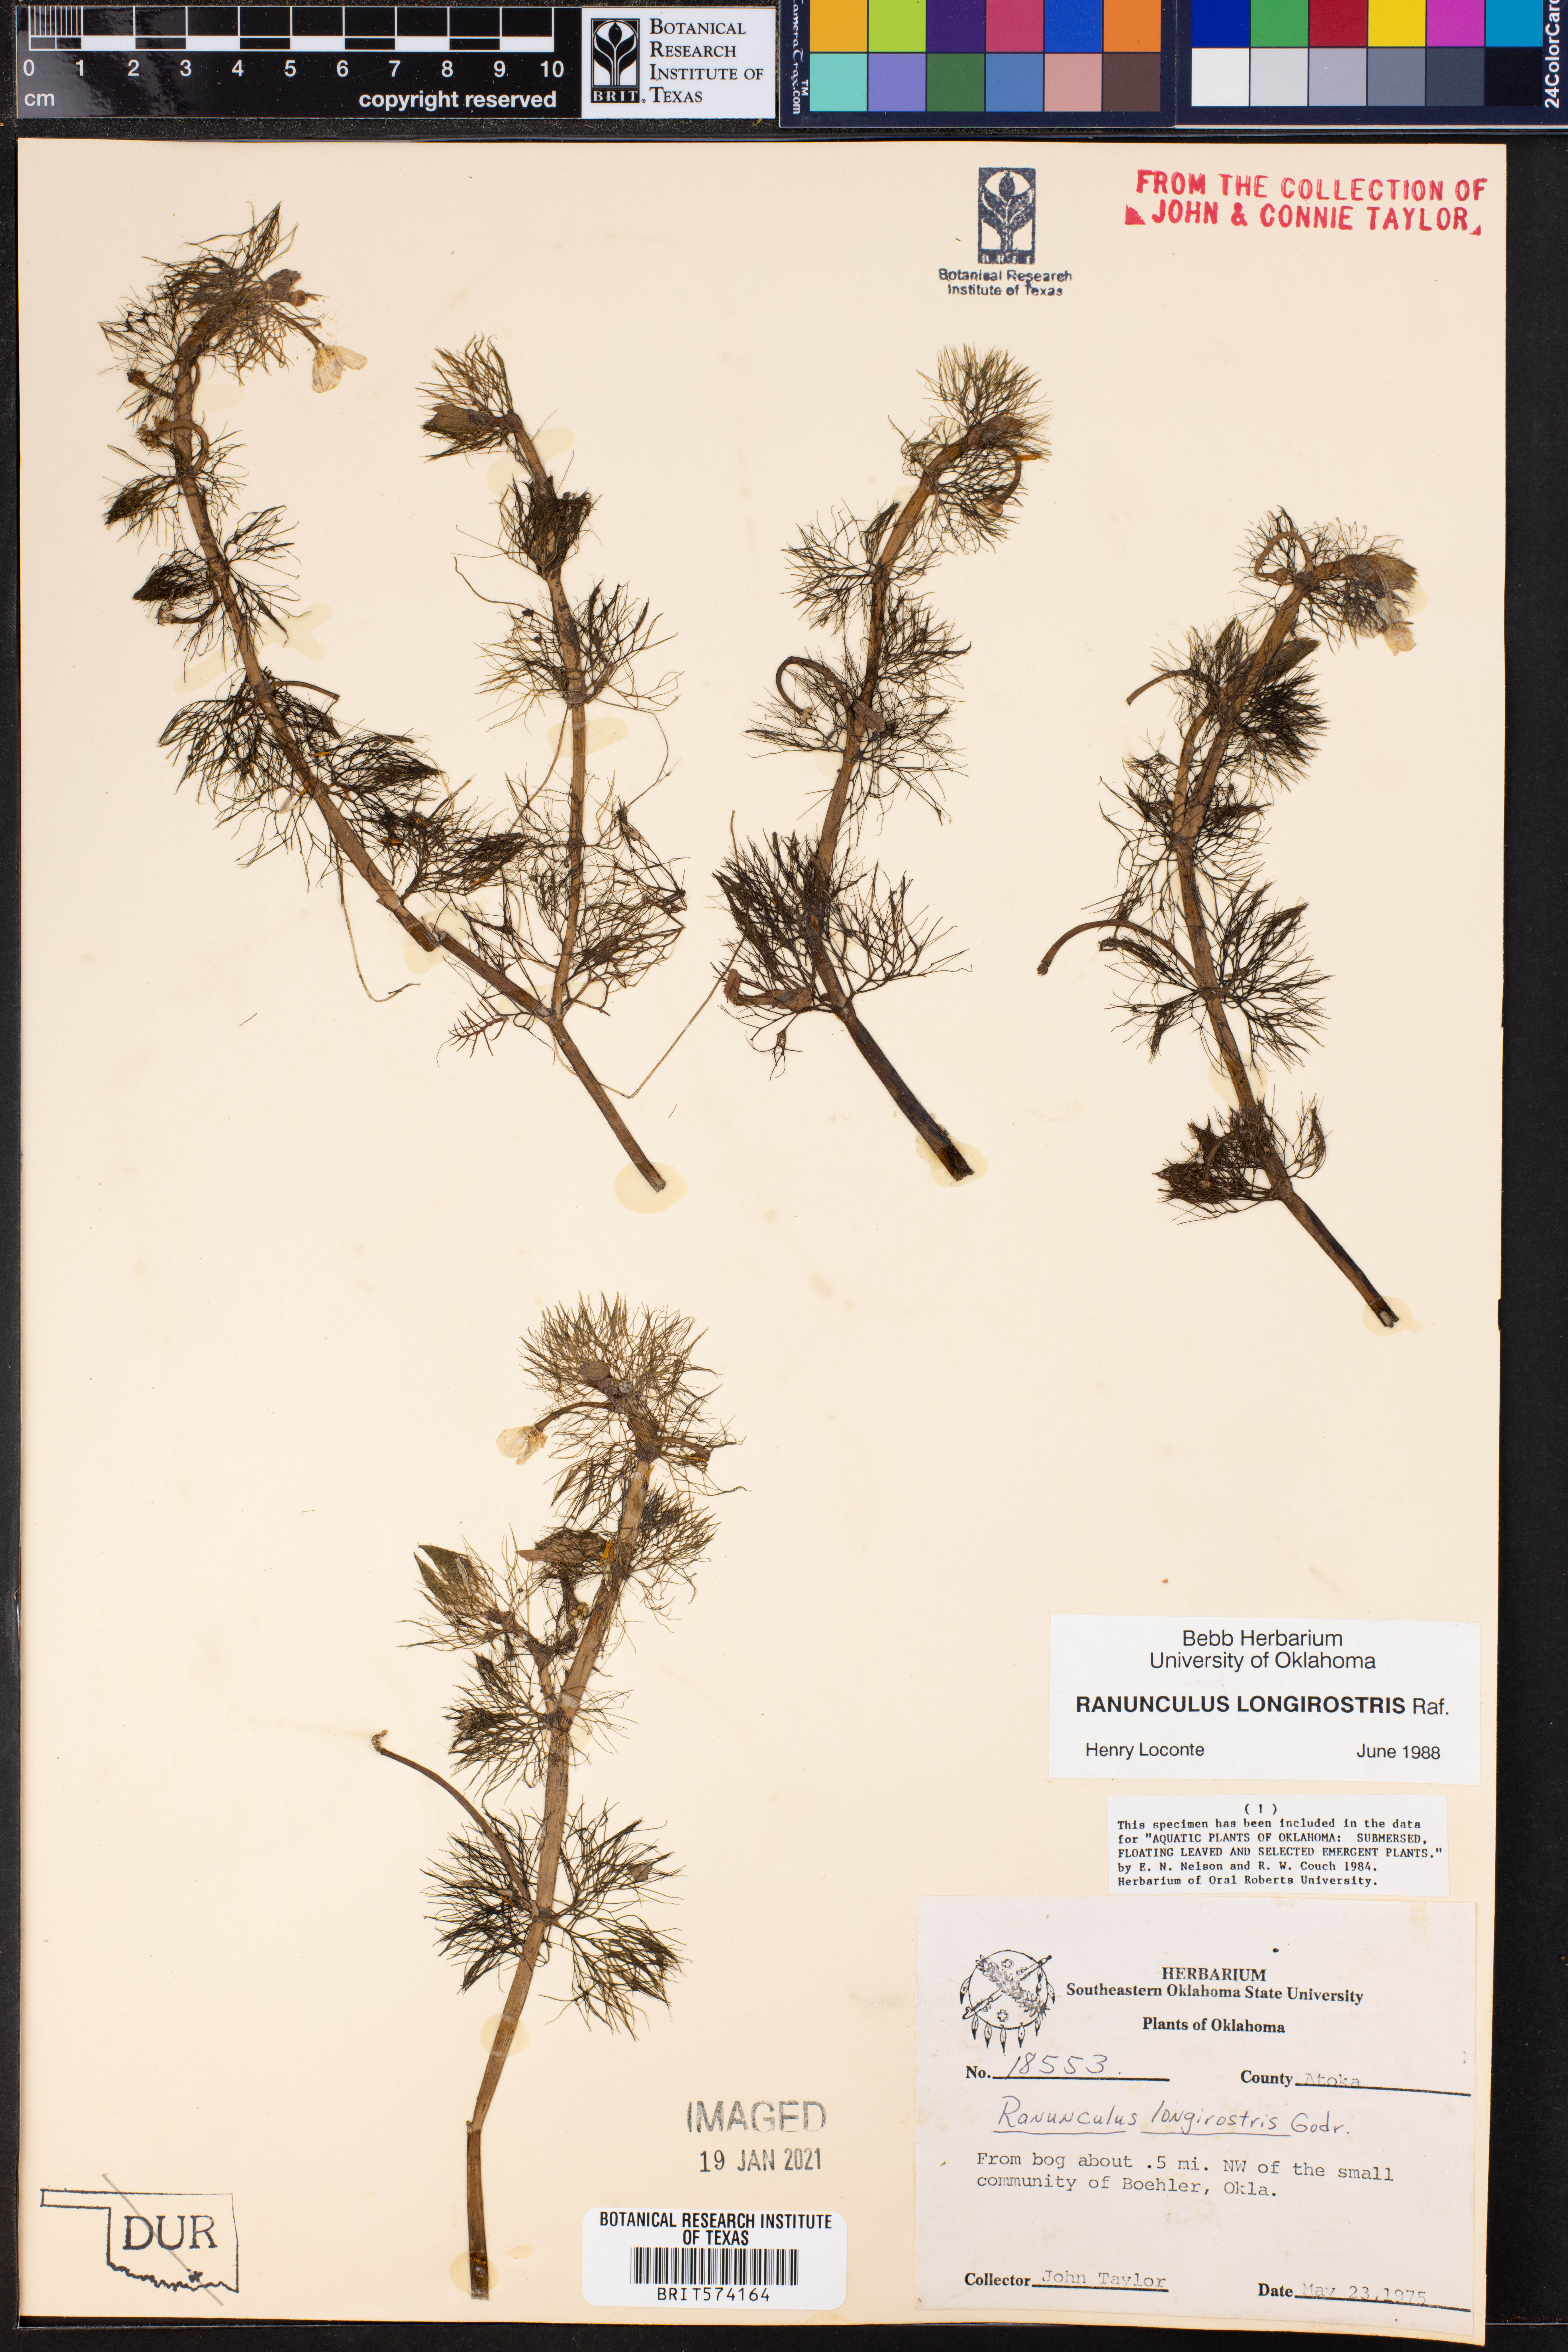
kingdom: Plantae
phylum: Tracheophyta
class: Magnoliopsida
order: Ranunculales
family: Ranunculaceae
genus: Ranunculus
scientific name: Ranunculus longirostris
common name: Curly white water-crowfoot
